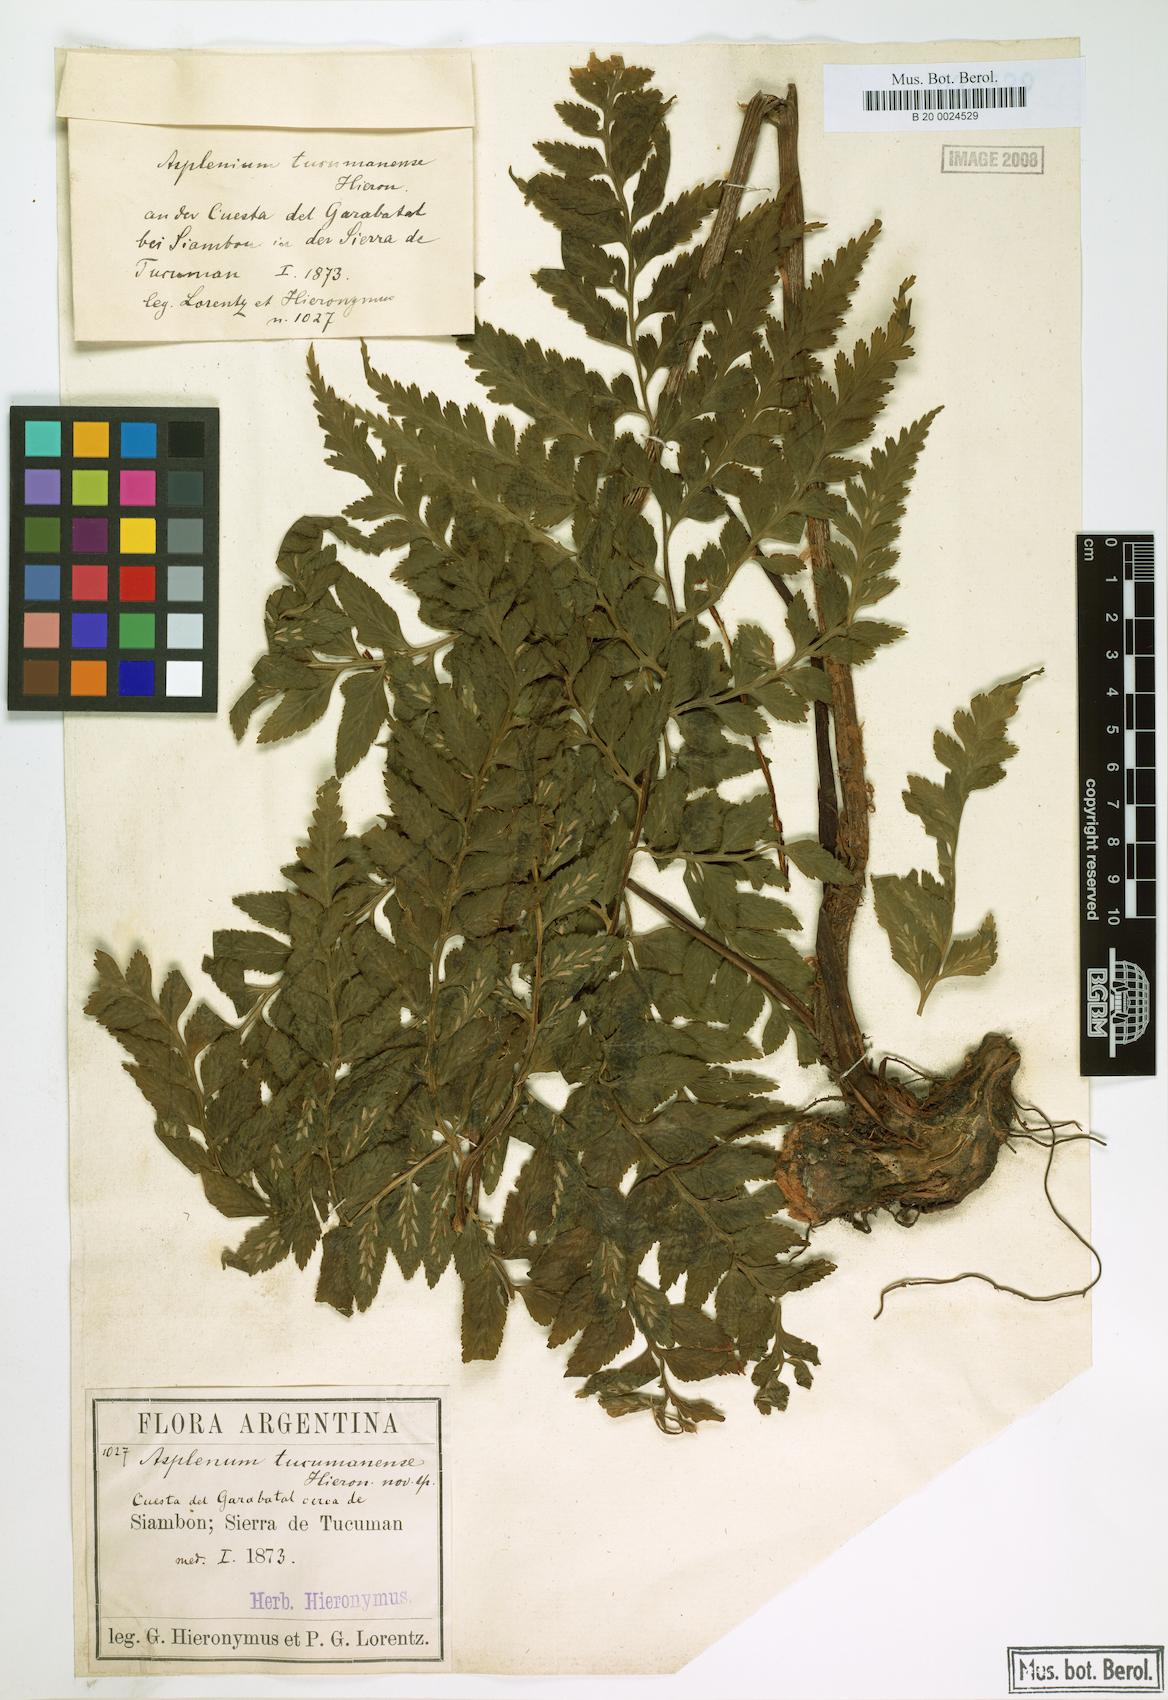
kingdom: Plantae
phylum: Tracheophyta
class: Polypodiopsida
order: Polypodiales
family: Aspleniaceae
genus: Asplenium
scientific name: Asplenium squamosum
